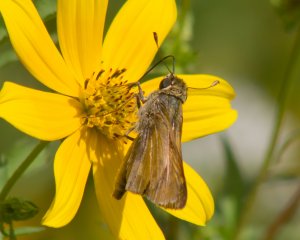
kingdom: Animalia
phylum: Arthropoda
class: Insecta
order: Lepidoptera
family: Hesperiidae
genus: Atalopedes
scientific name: Atalopedes campestris
